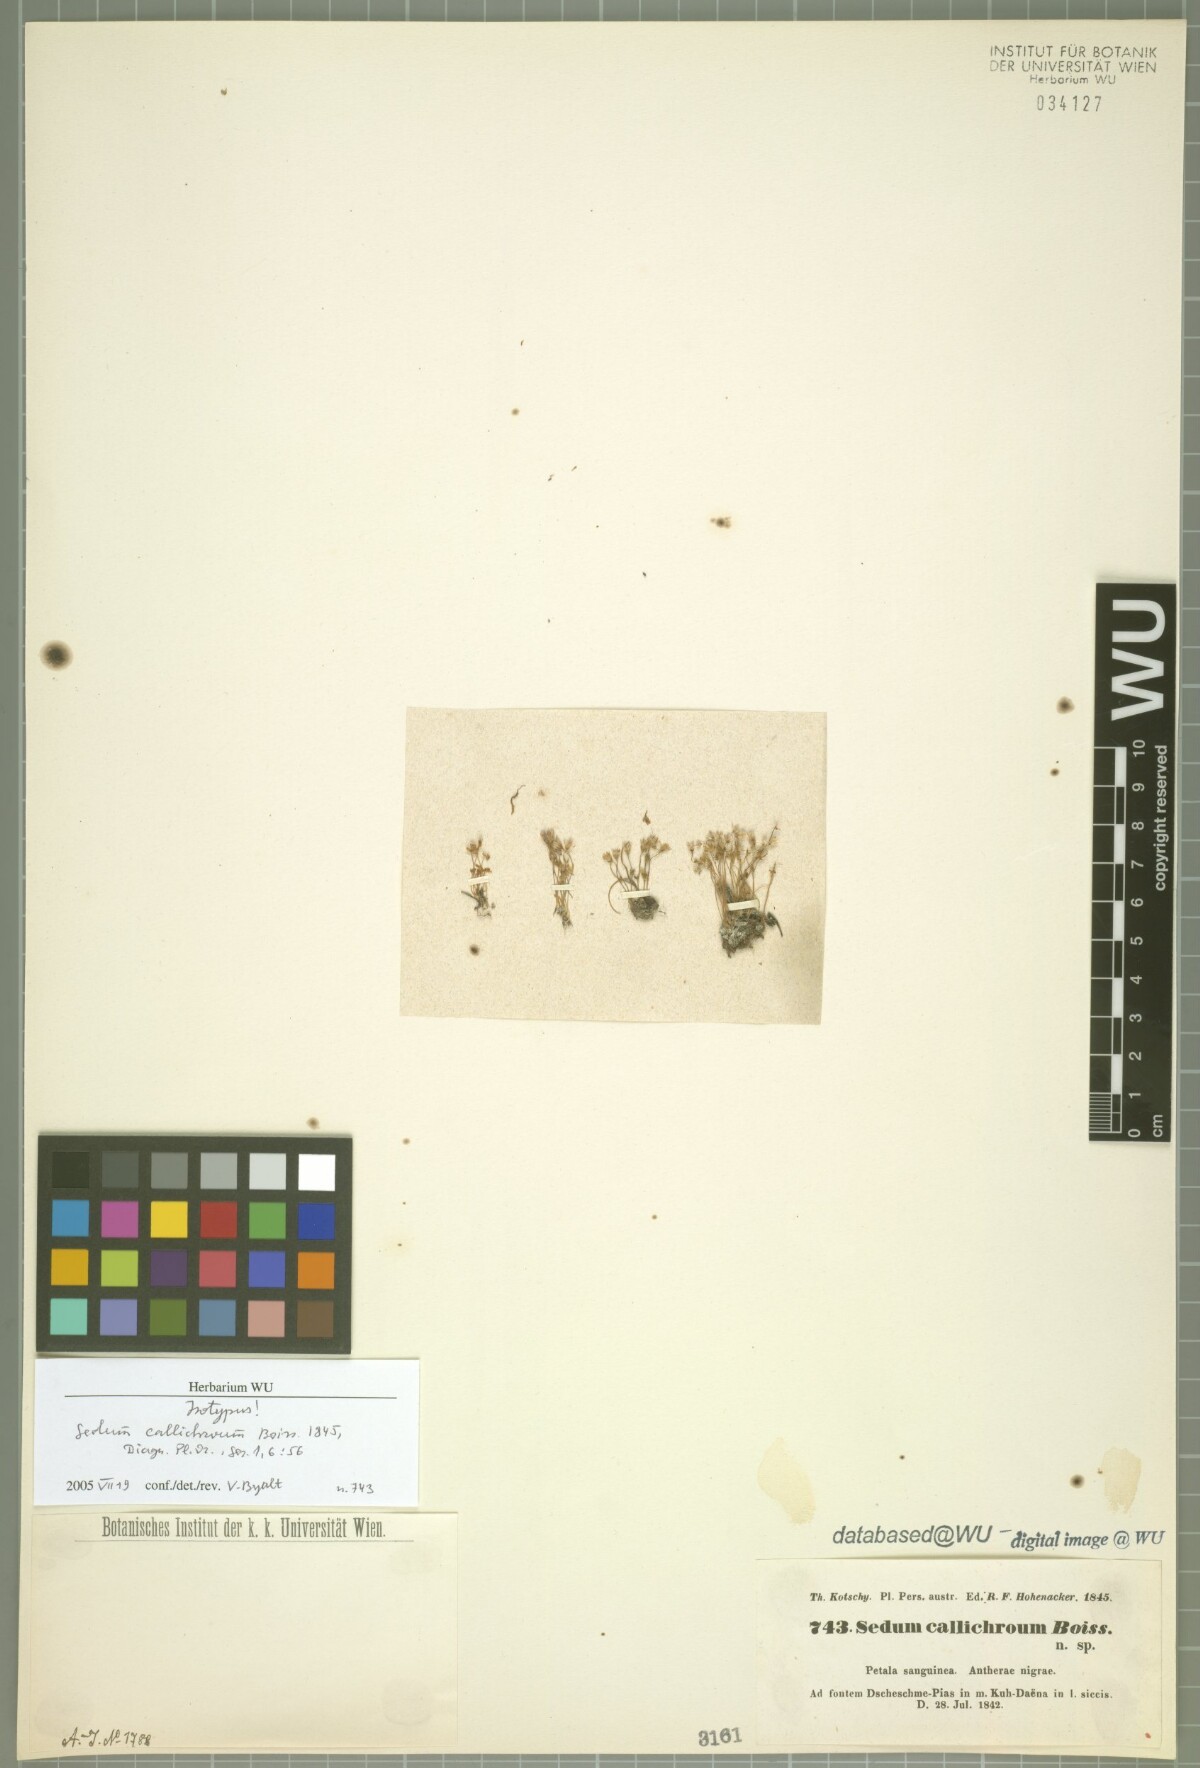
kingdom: Plantae
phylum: Tracheophyta
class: Magnoliopsida
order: Saxifragales
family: Crassulaceae
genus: Sedum
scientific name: Sedum callichroum
